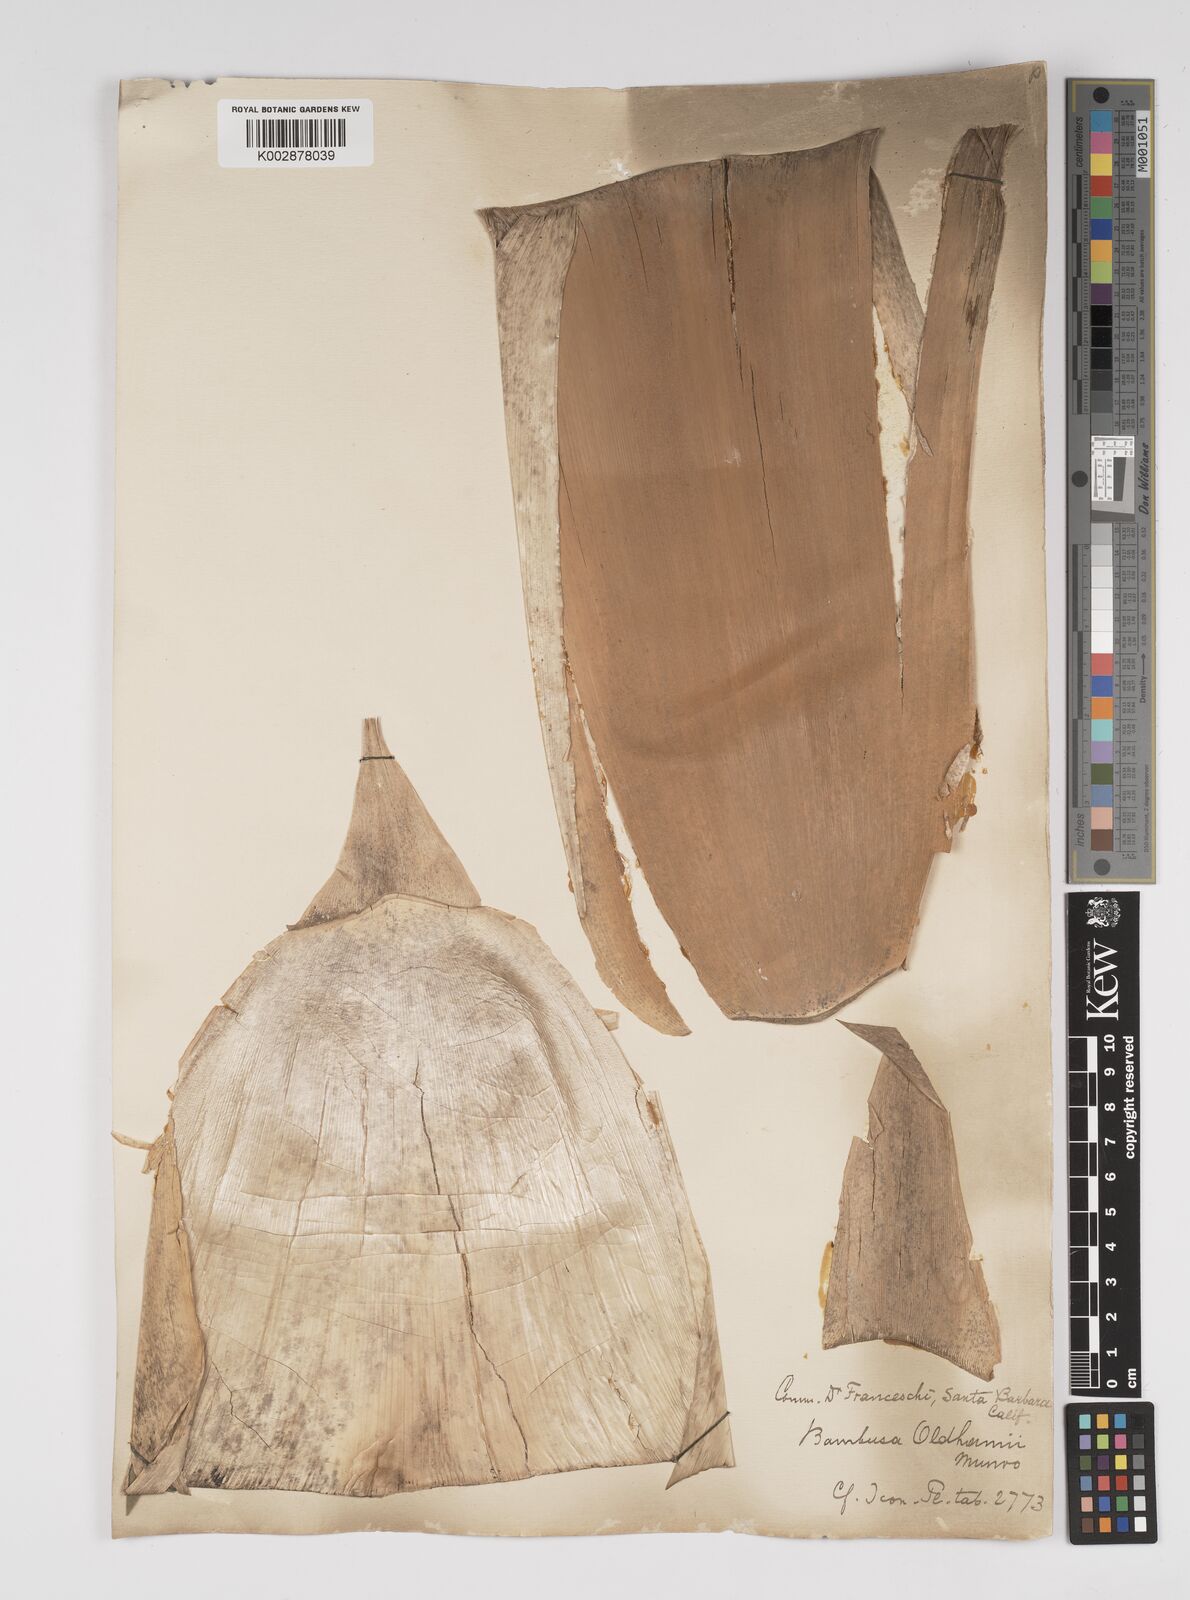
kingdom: Plantae
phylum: Tracheophyta
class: Liliopsida
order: Poales
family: Poaceae
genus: Bambusa
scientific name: Bambusa oldhamii
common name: Giant timber bamboo
